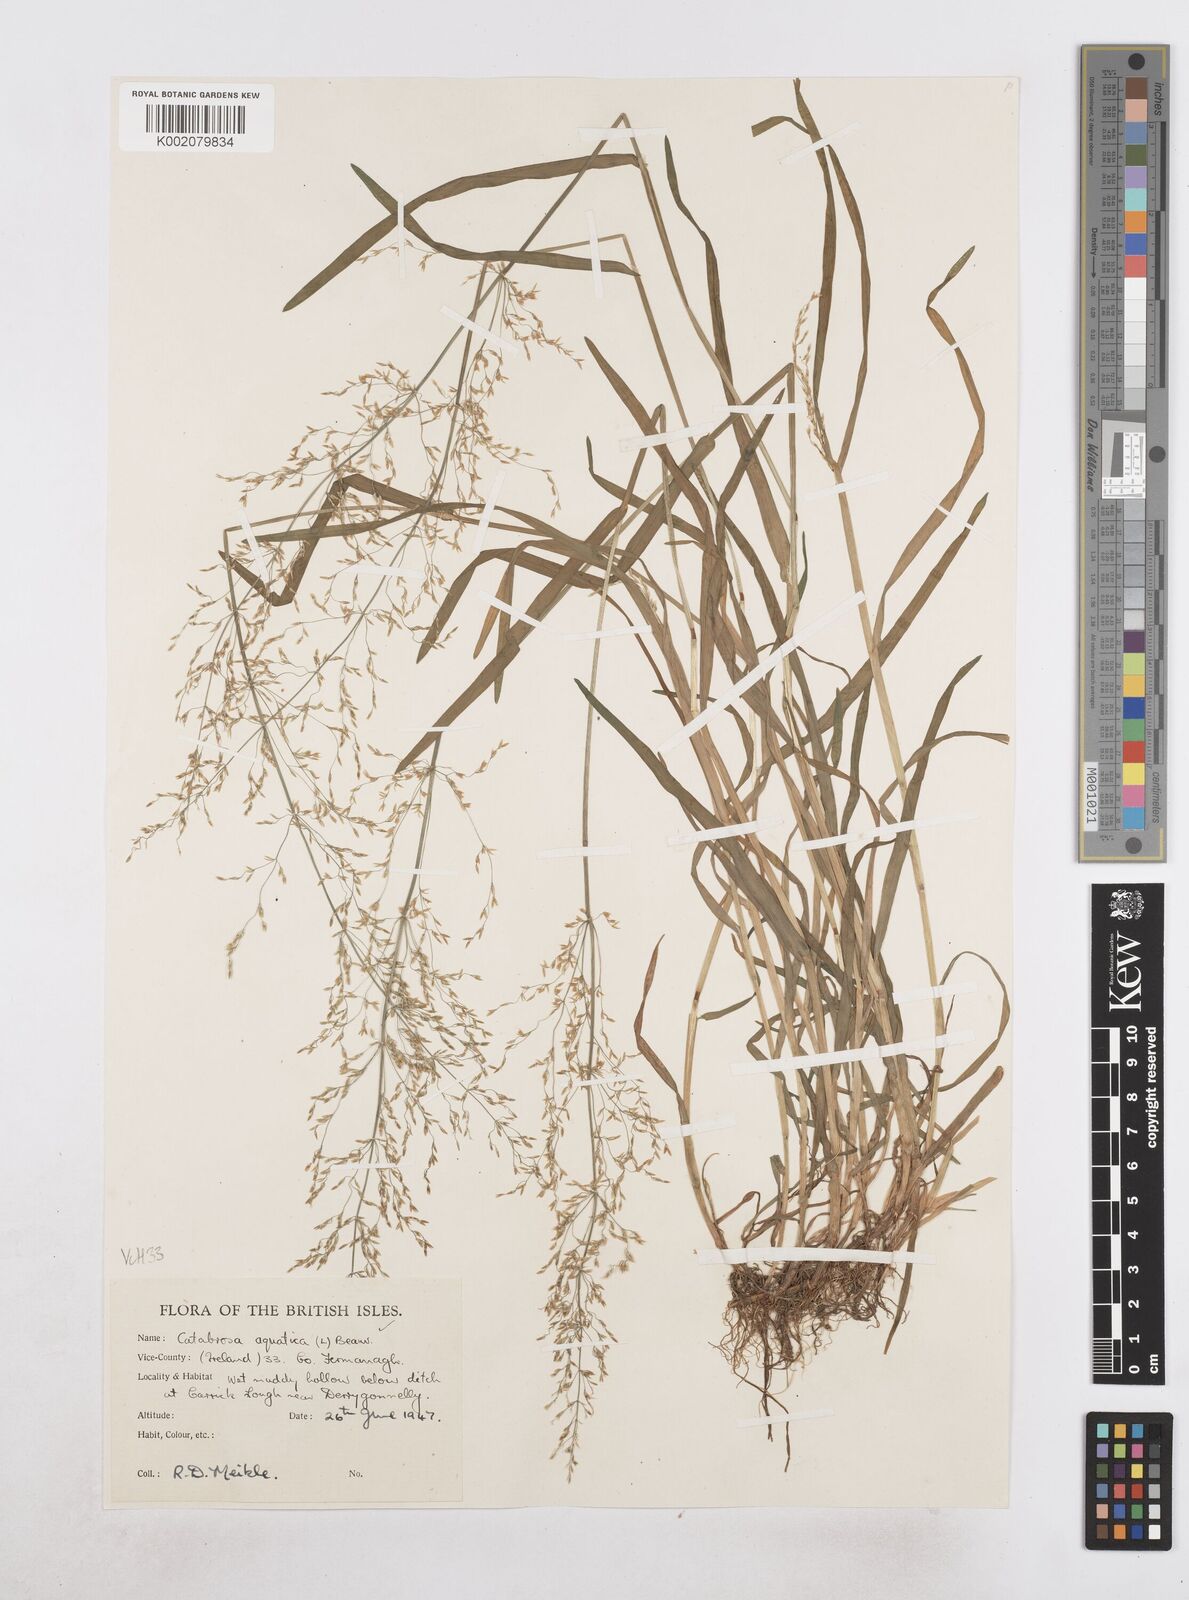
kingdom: Plantae
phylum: Tracheophyta
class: Liliopsida
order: Poales
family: Poaceae
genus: Catabrosa
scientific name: Catabrosa aquatica
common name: Whorl-grass
